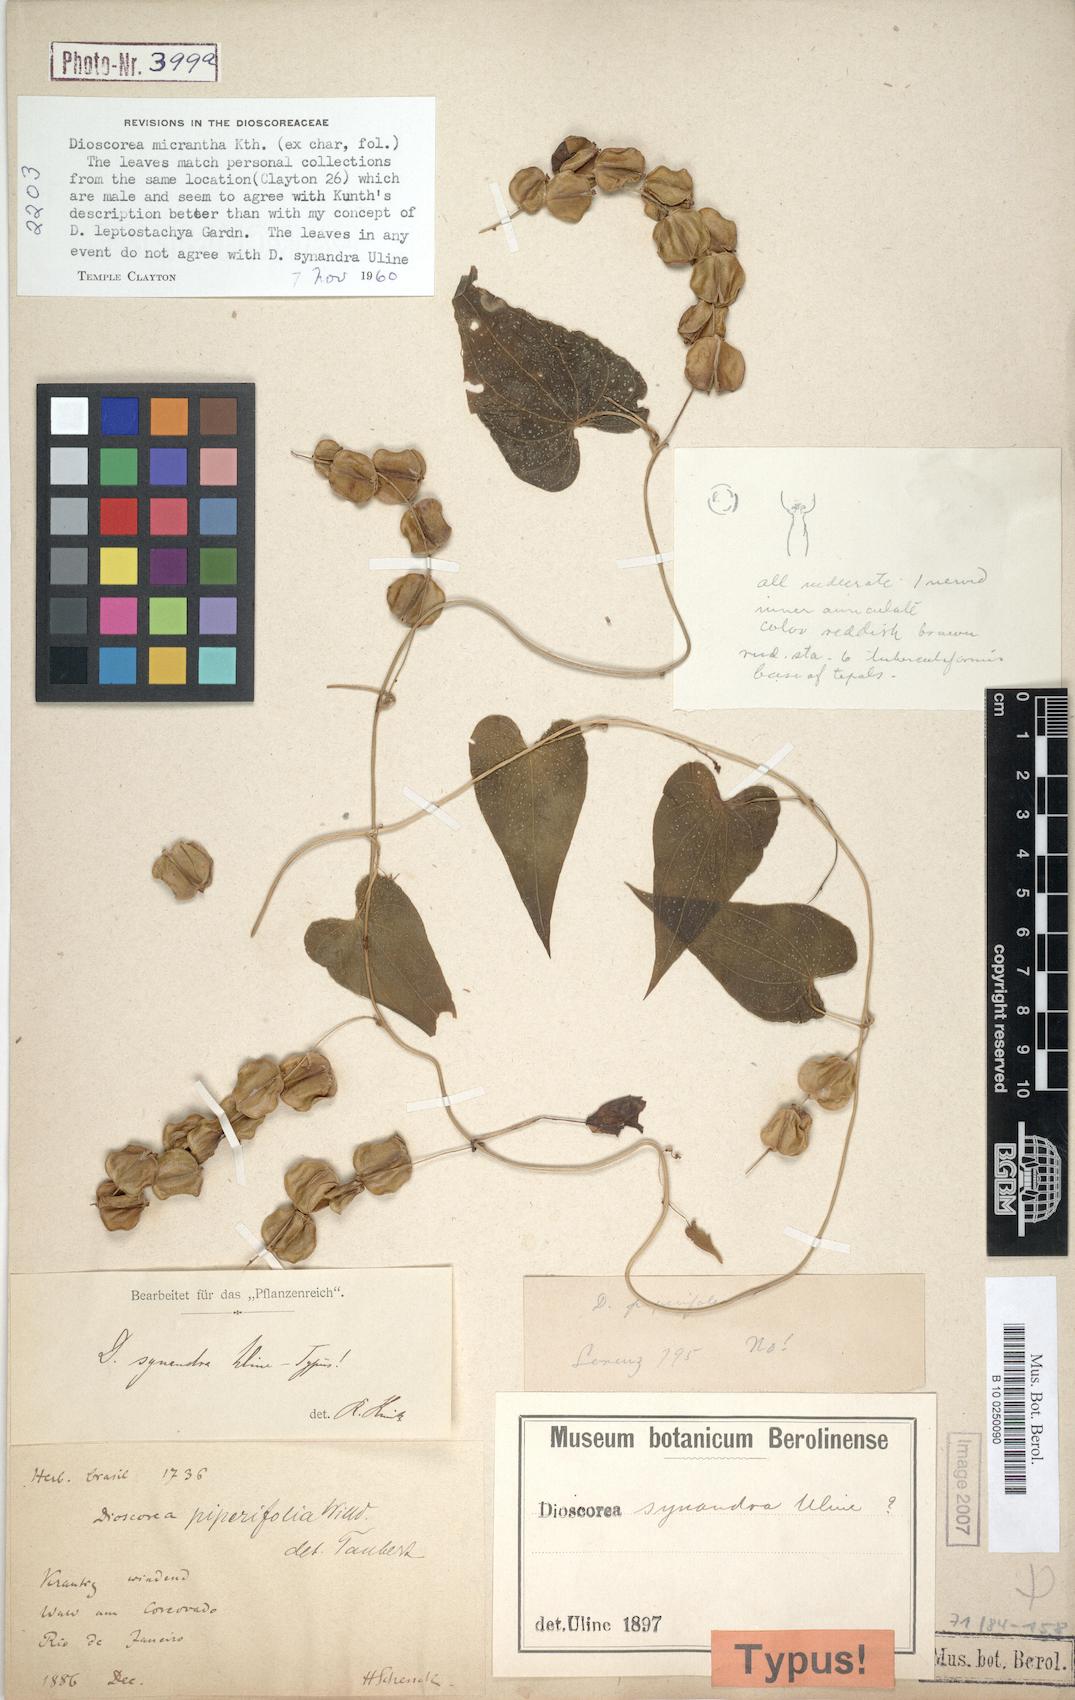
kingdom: Plantae
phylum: Tracheophyta
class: Liliopsida
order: Dioscoreales
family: Dioscoreaceae
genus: Dioscorea
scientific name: Dioscorea martiana
